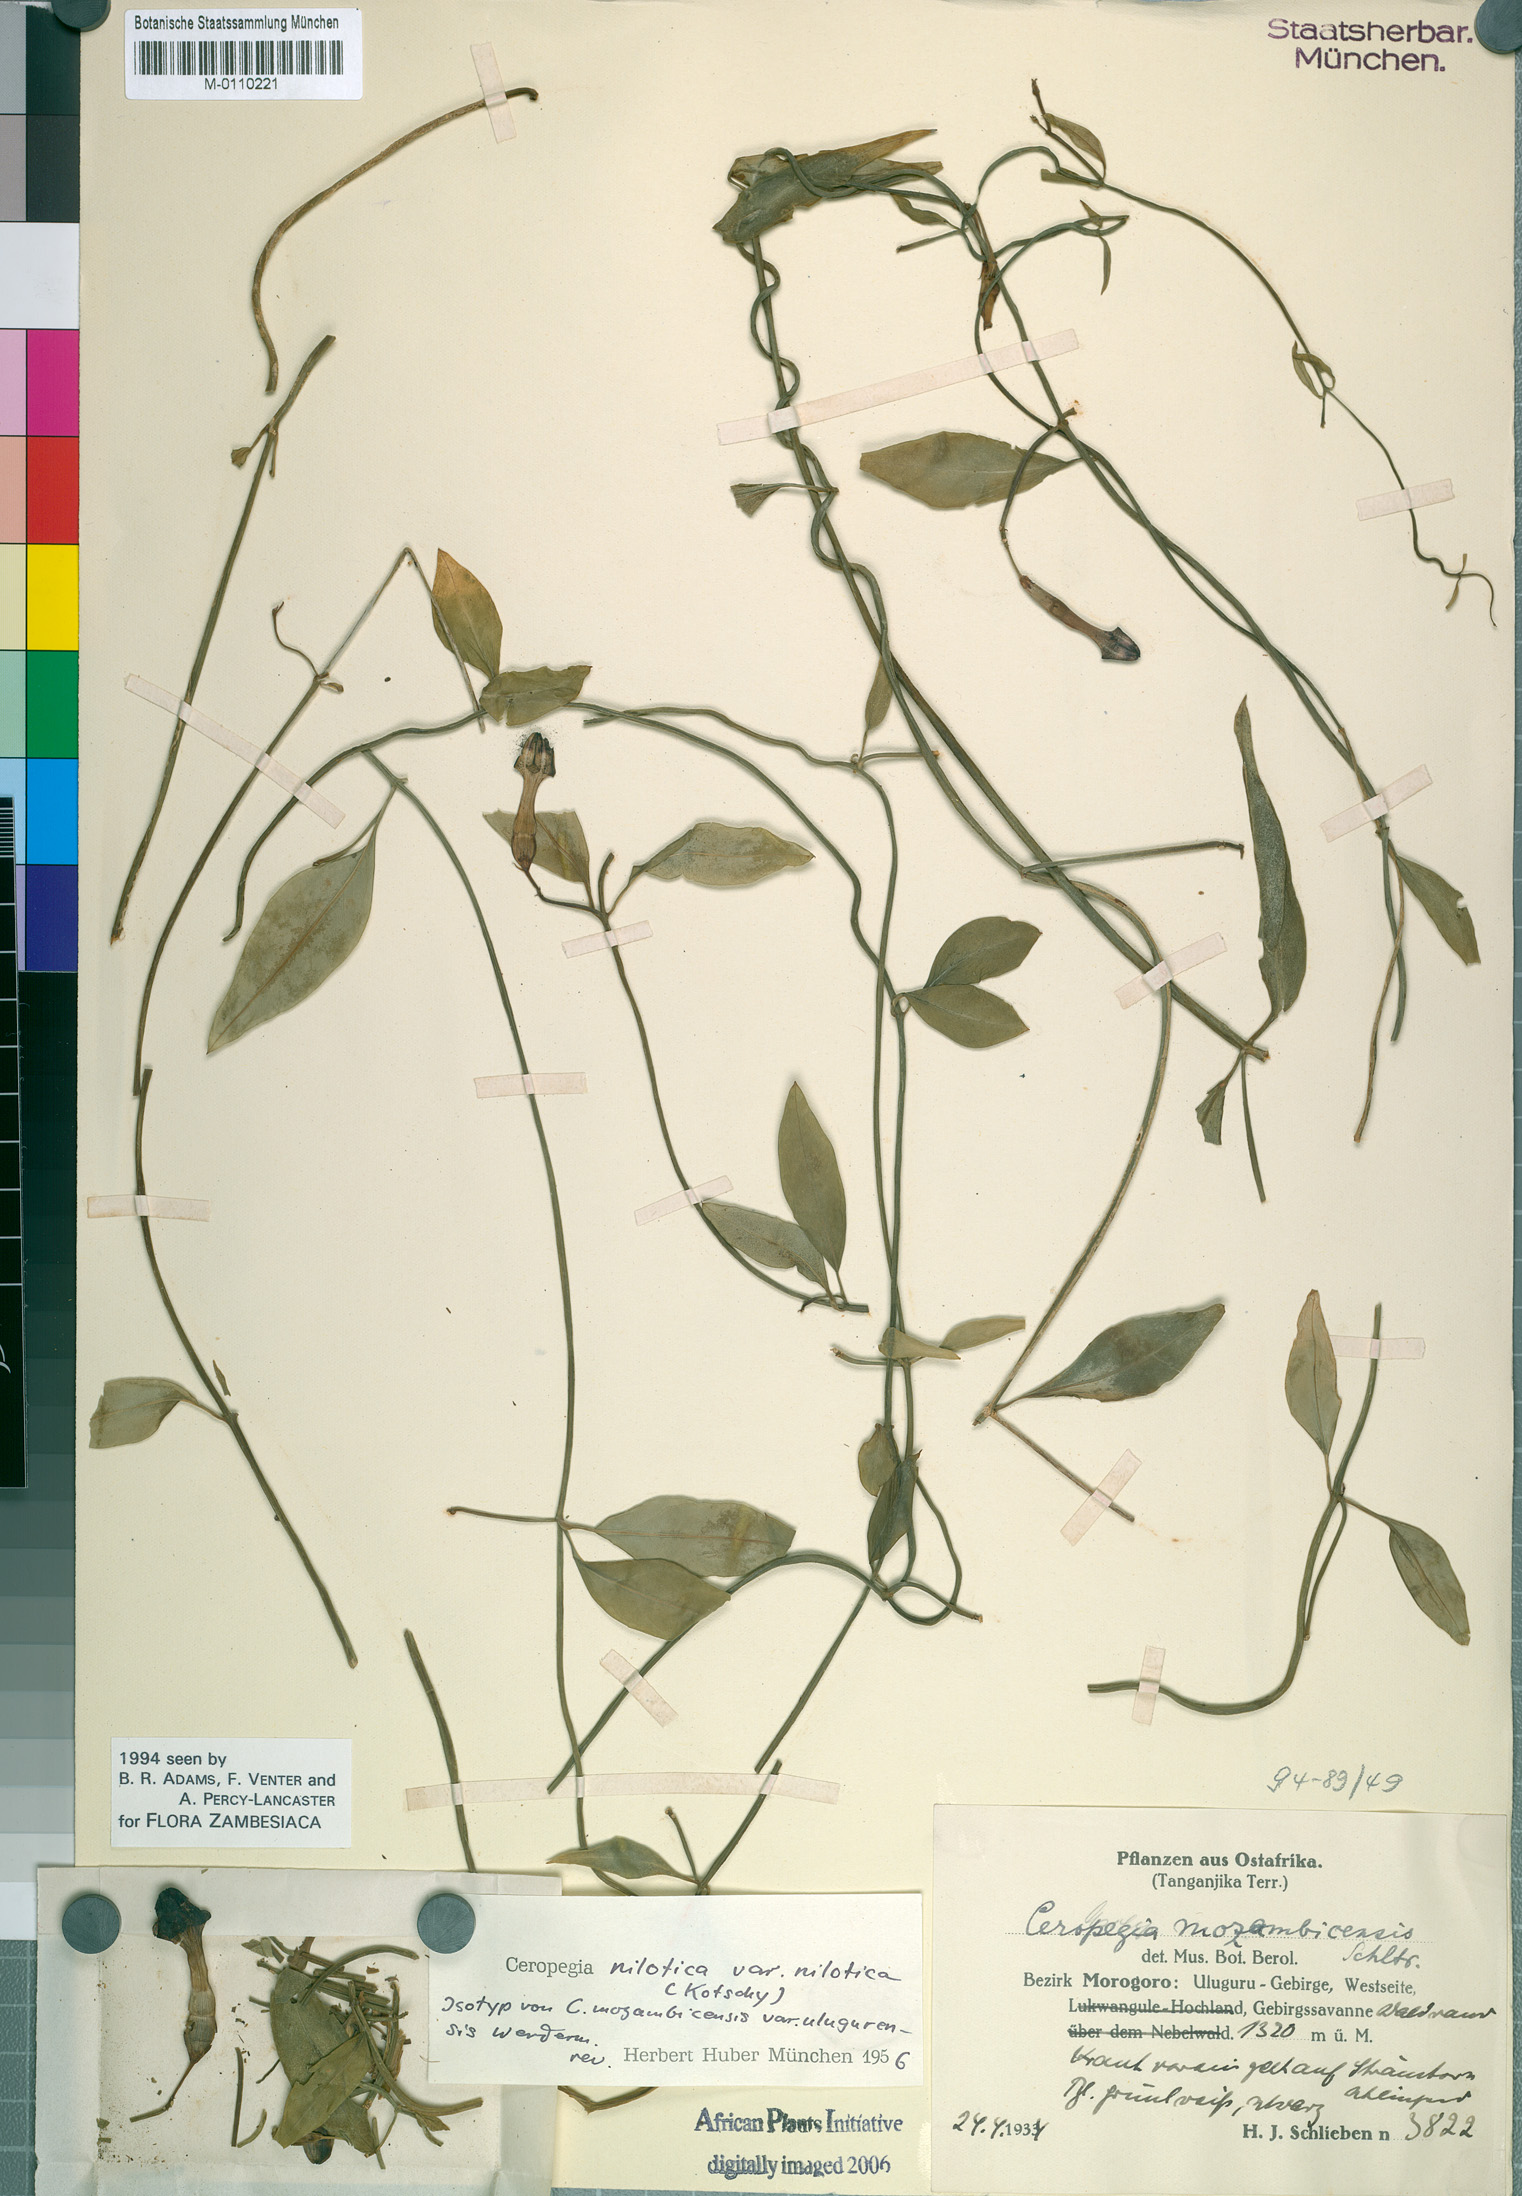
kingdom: Plantae
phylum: Tracheophyta
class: Magnoliopsida
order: Gentianales
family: Apocynaceae
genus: Ceropegia
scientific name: Ceropegia nilotica
